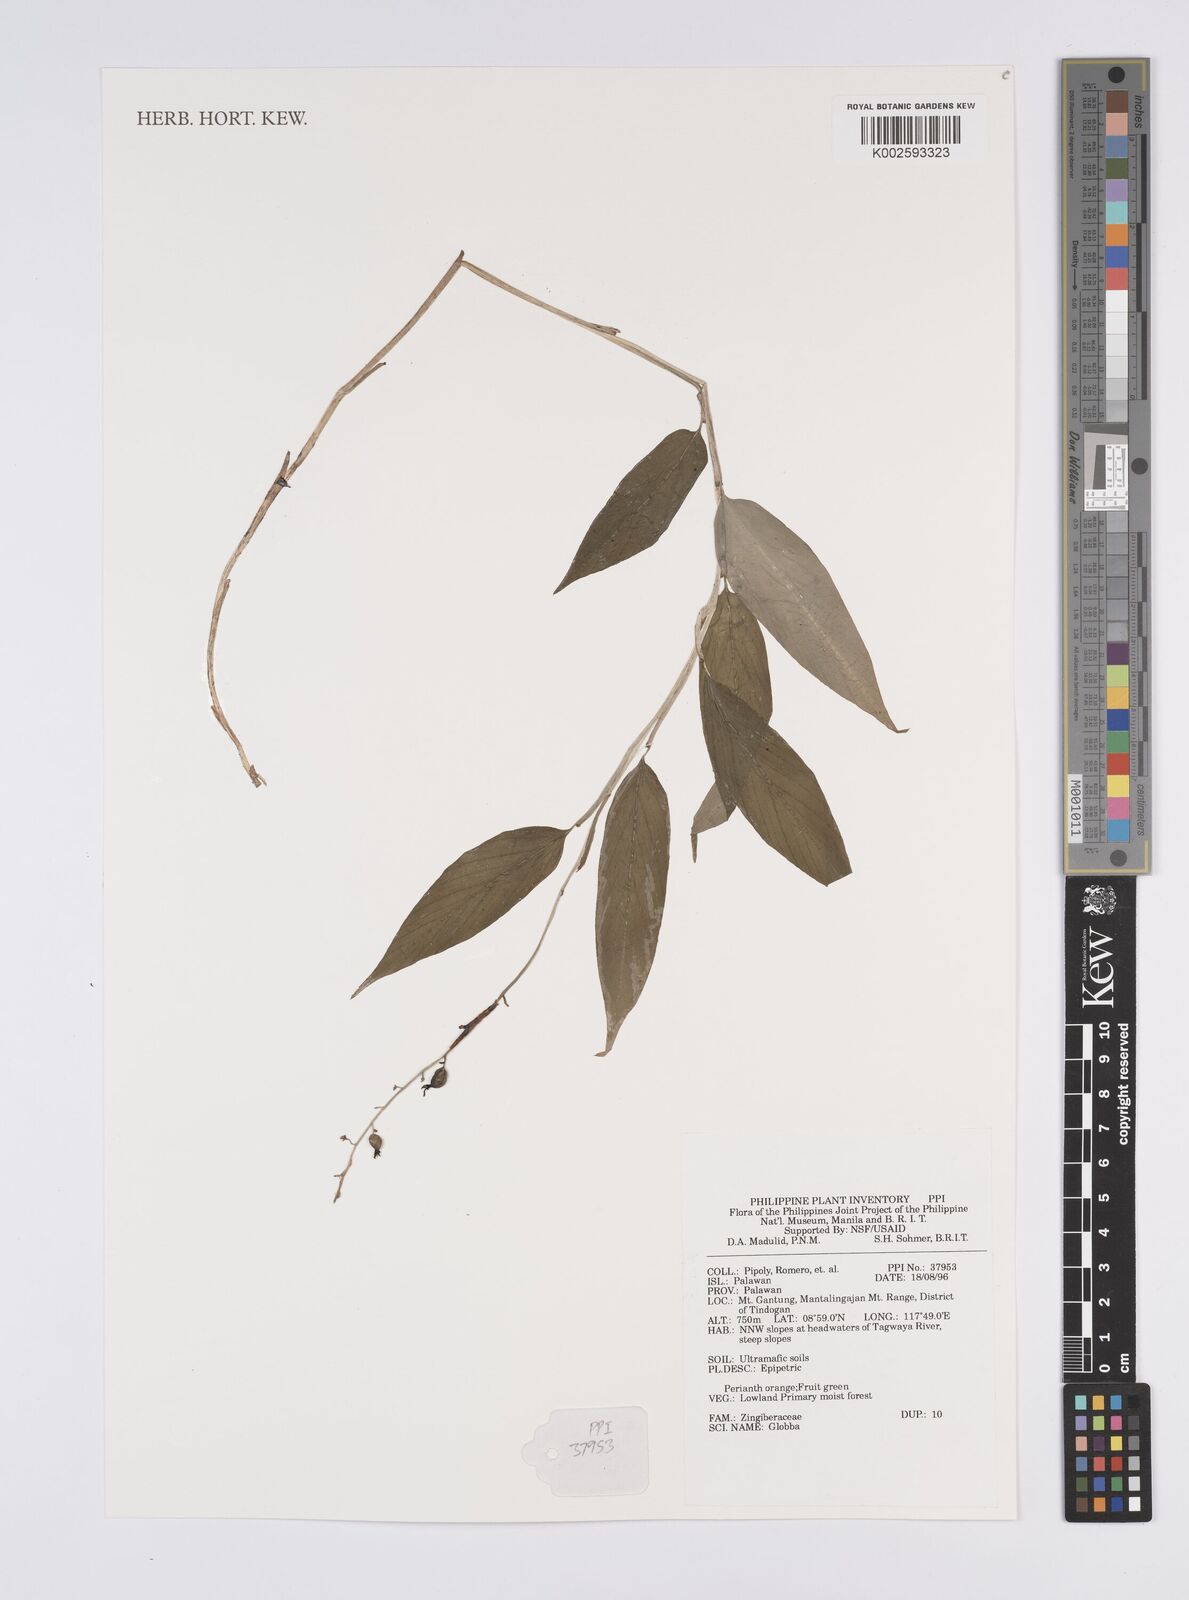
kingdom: Plantae
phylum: Tracheophyta
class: Liliopsida
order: Zingiberales
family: Zingiberaceae
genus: Globba
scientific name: Globba
